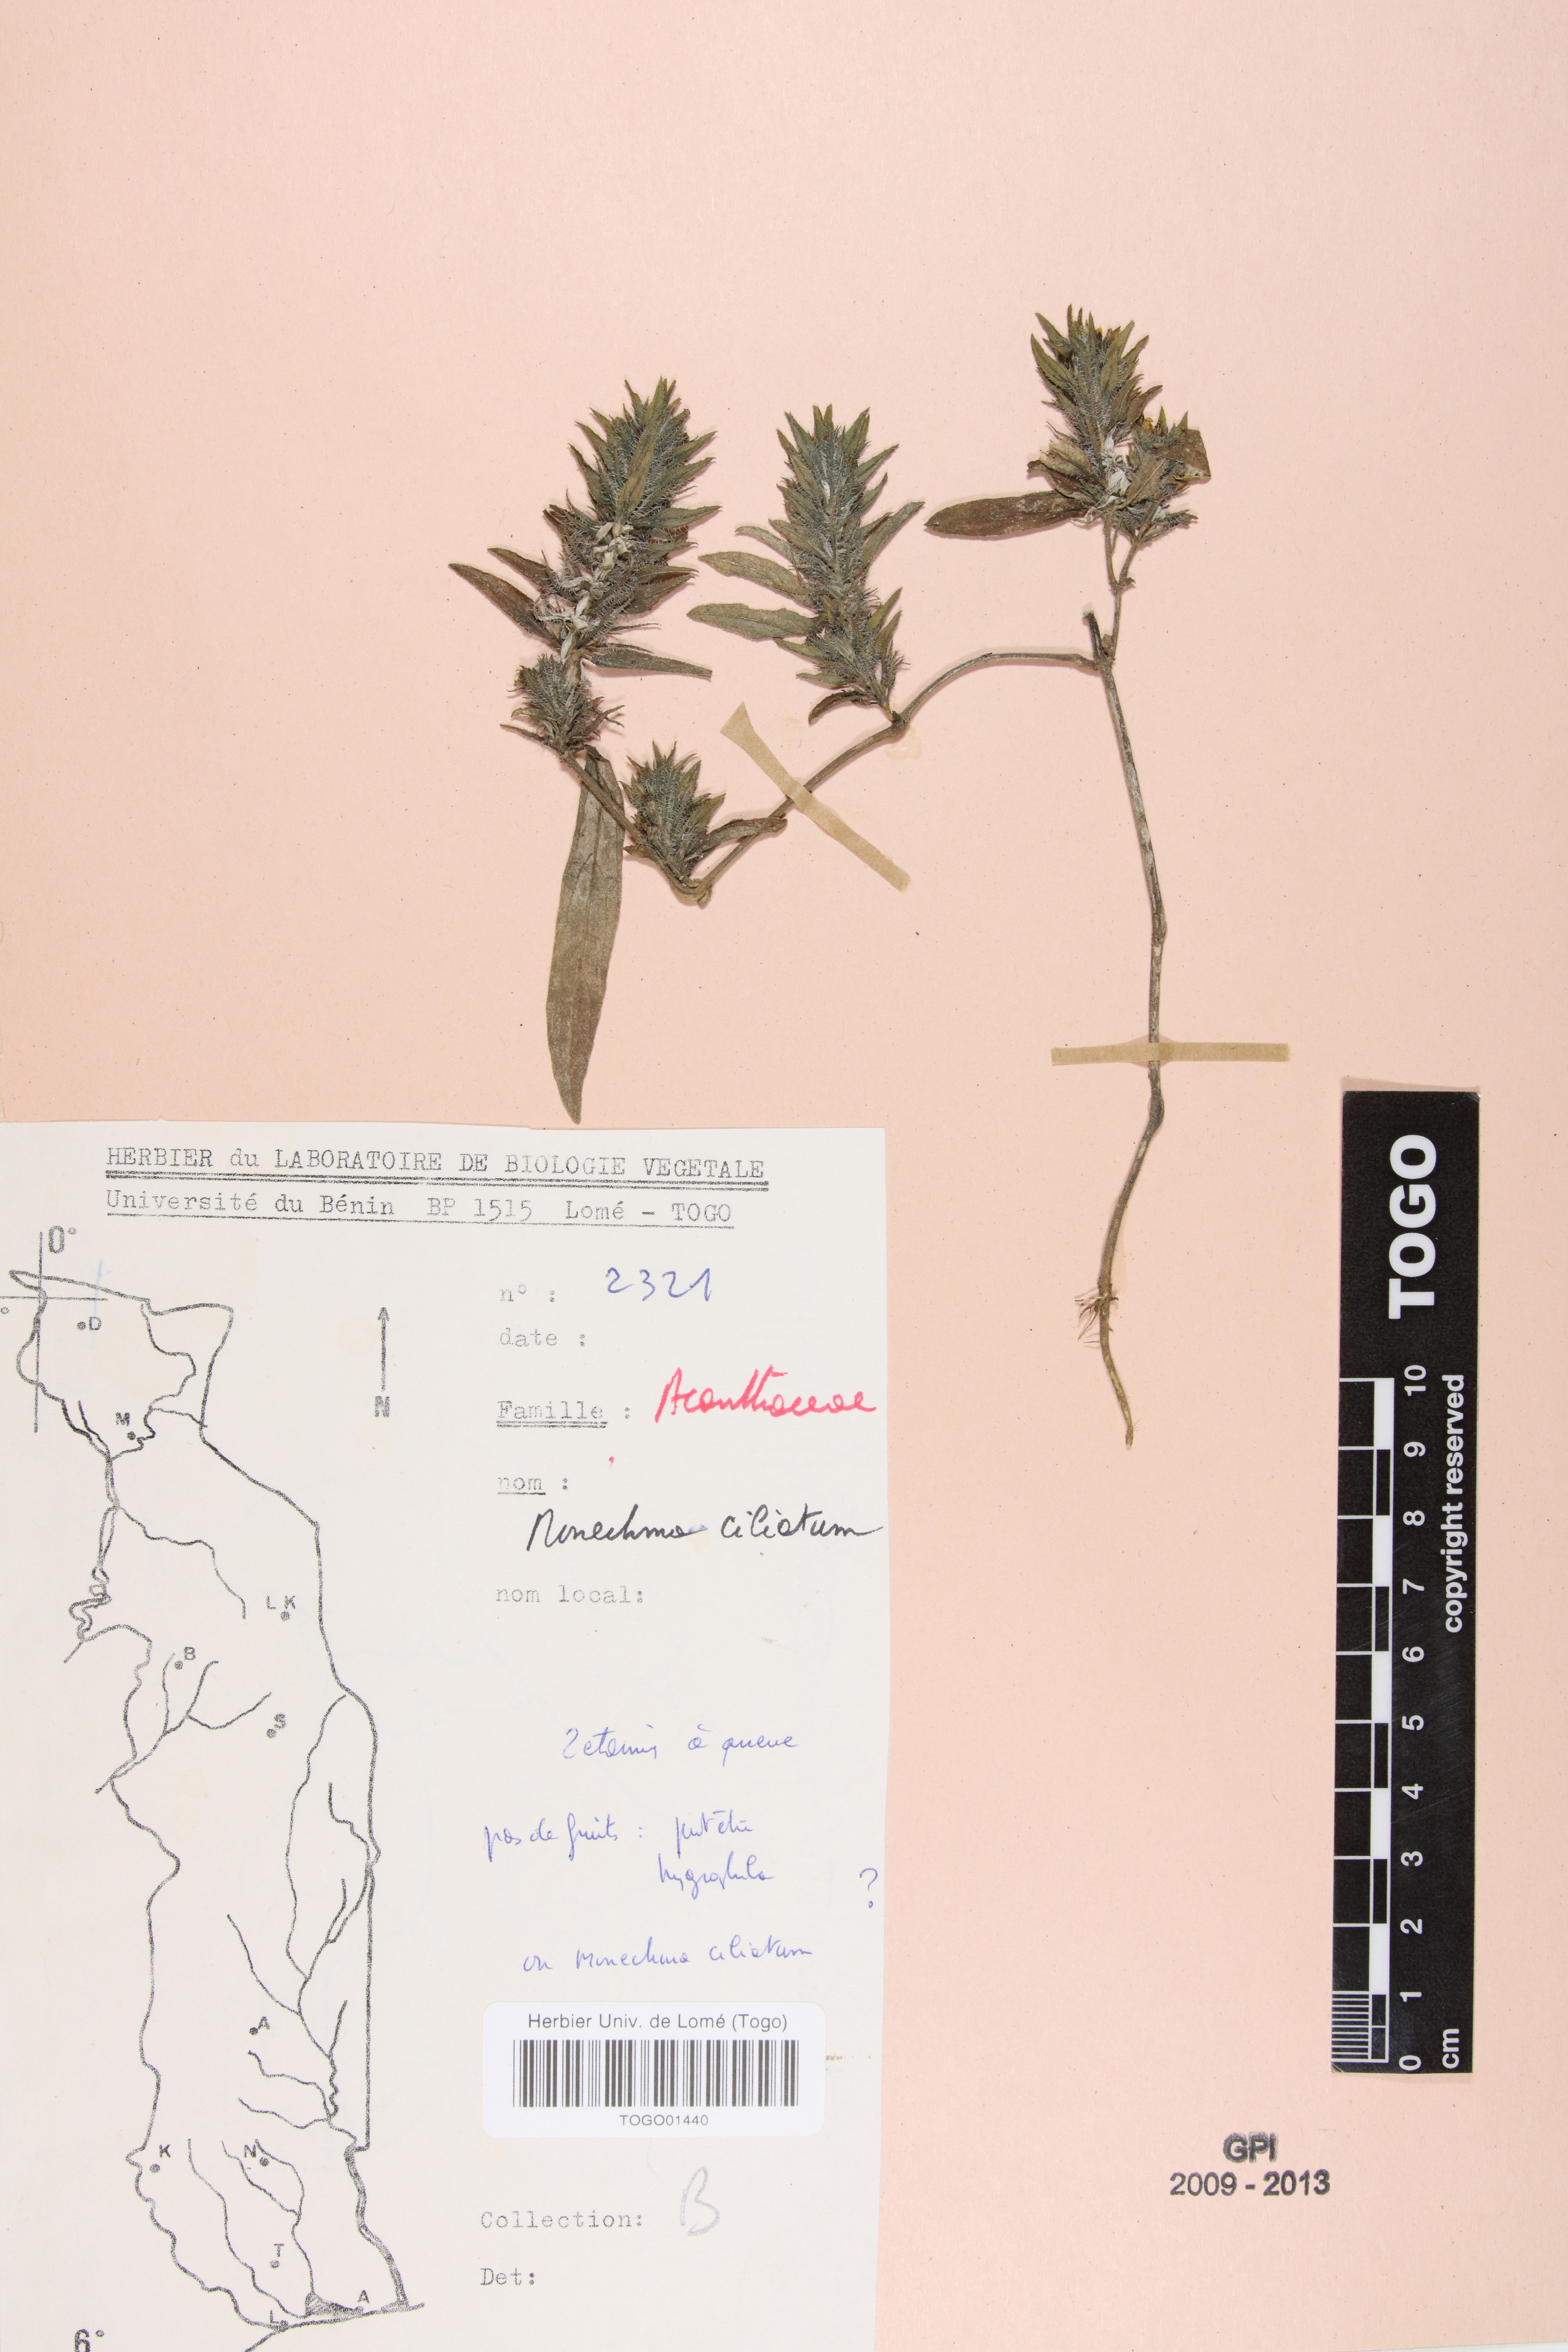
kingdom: Plantae
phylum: Tracheophyta
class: Magnoliopsida
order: Lamiales
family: Acanthaceae
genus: Pogonospermum
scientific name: Pogonospermum ciliare
